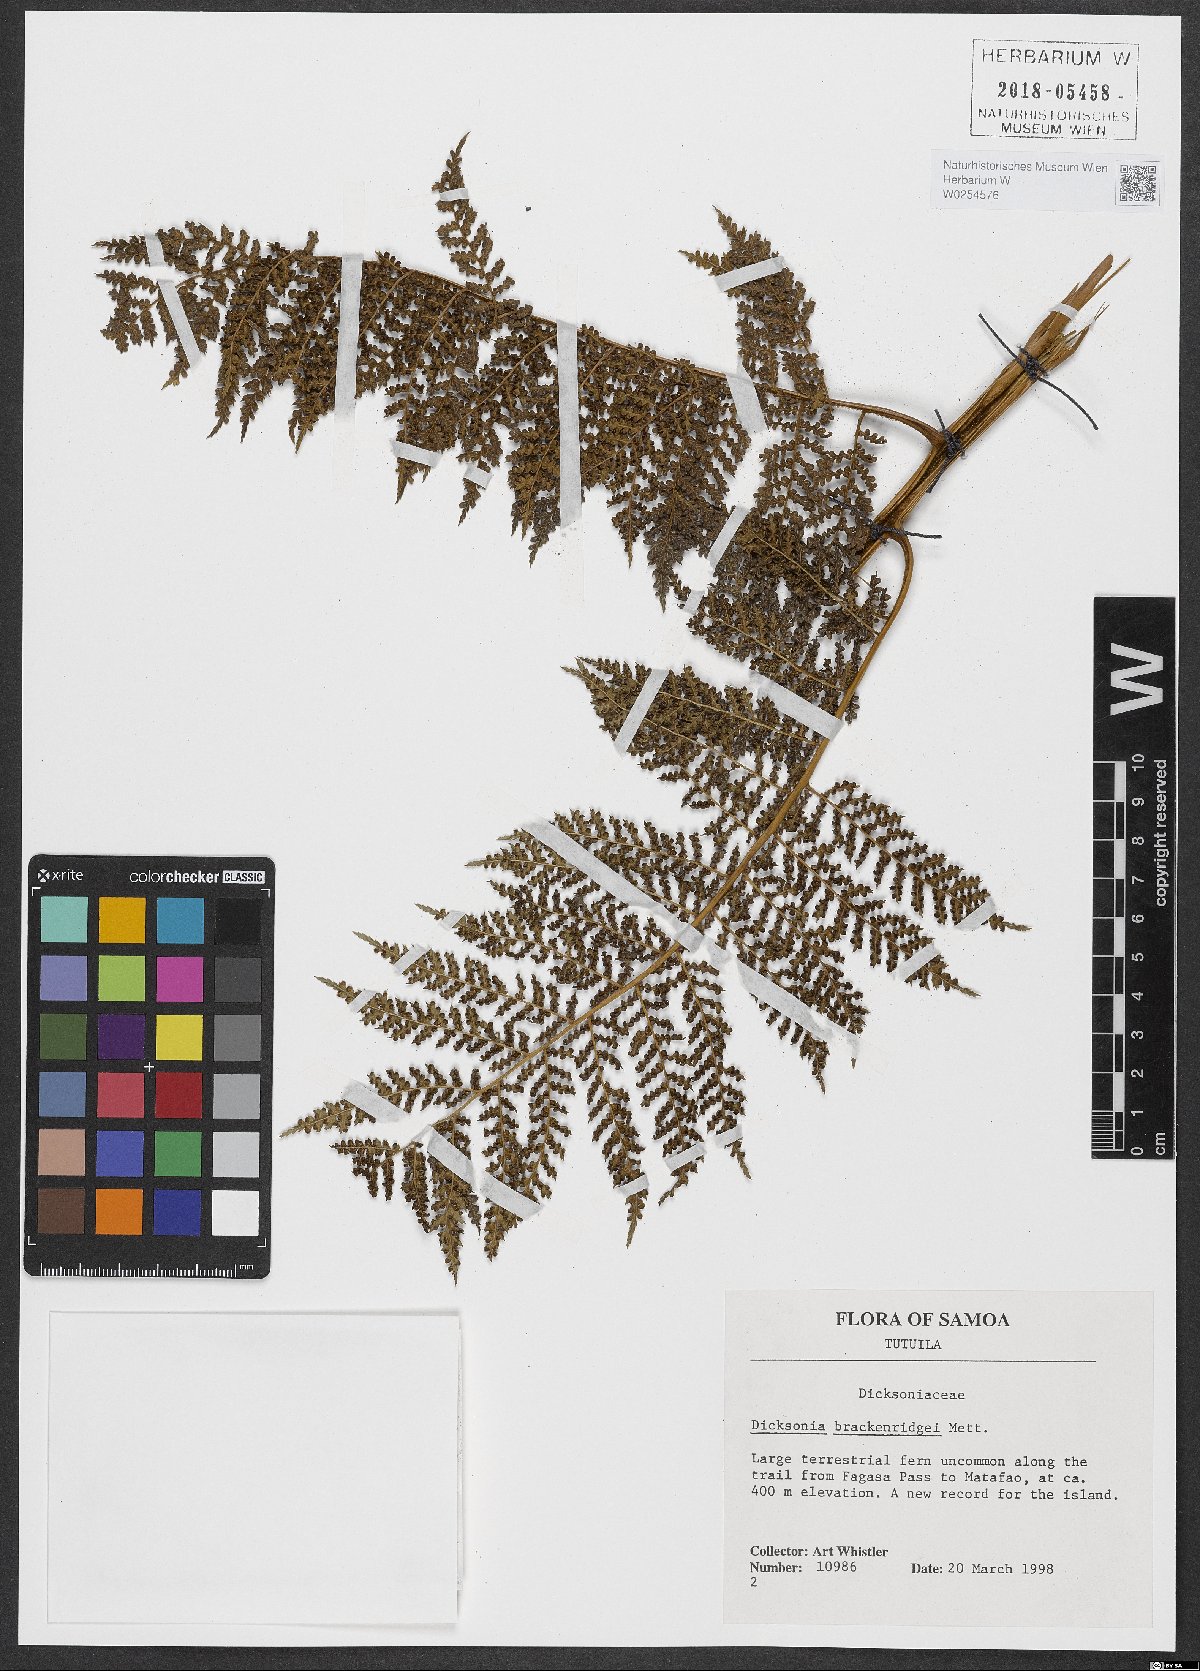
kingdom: Plantae
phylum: Tracheophyta
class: Polypodiopsida
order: Cyatheales
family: Dicksoniaceae
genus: Dicksonia
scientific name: Dicksonia brackenridgei
